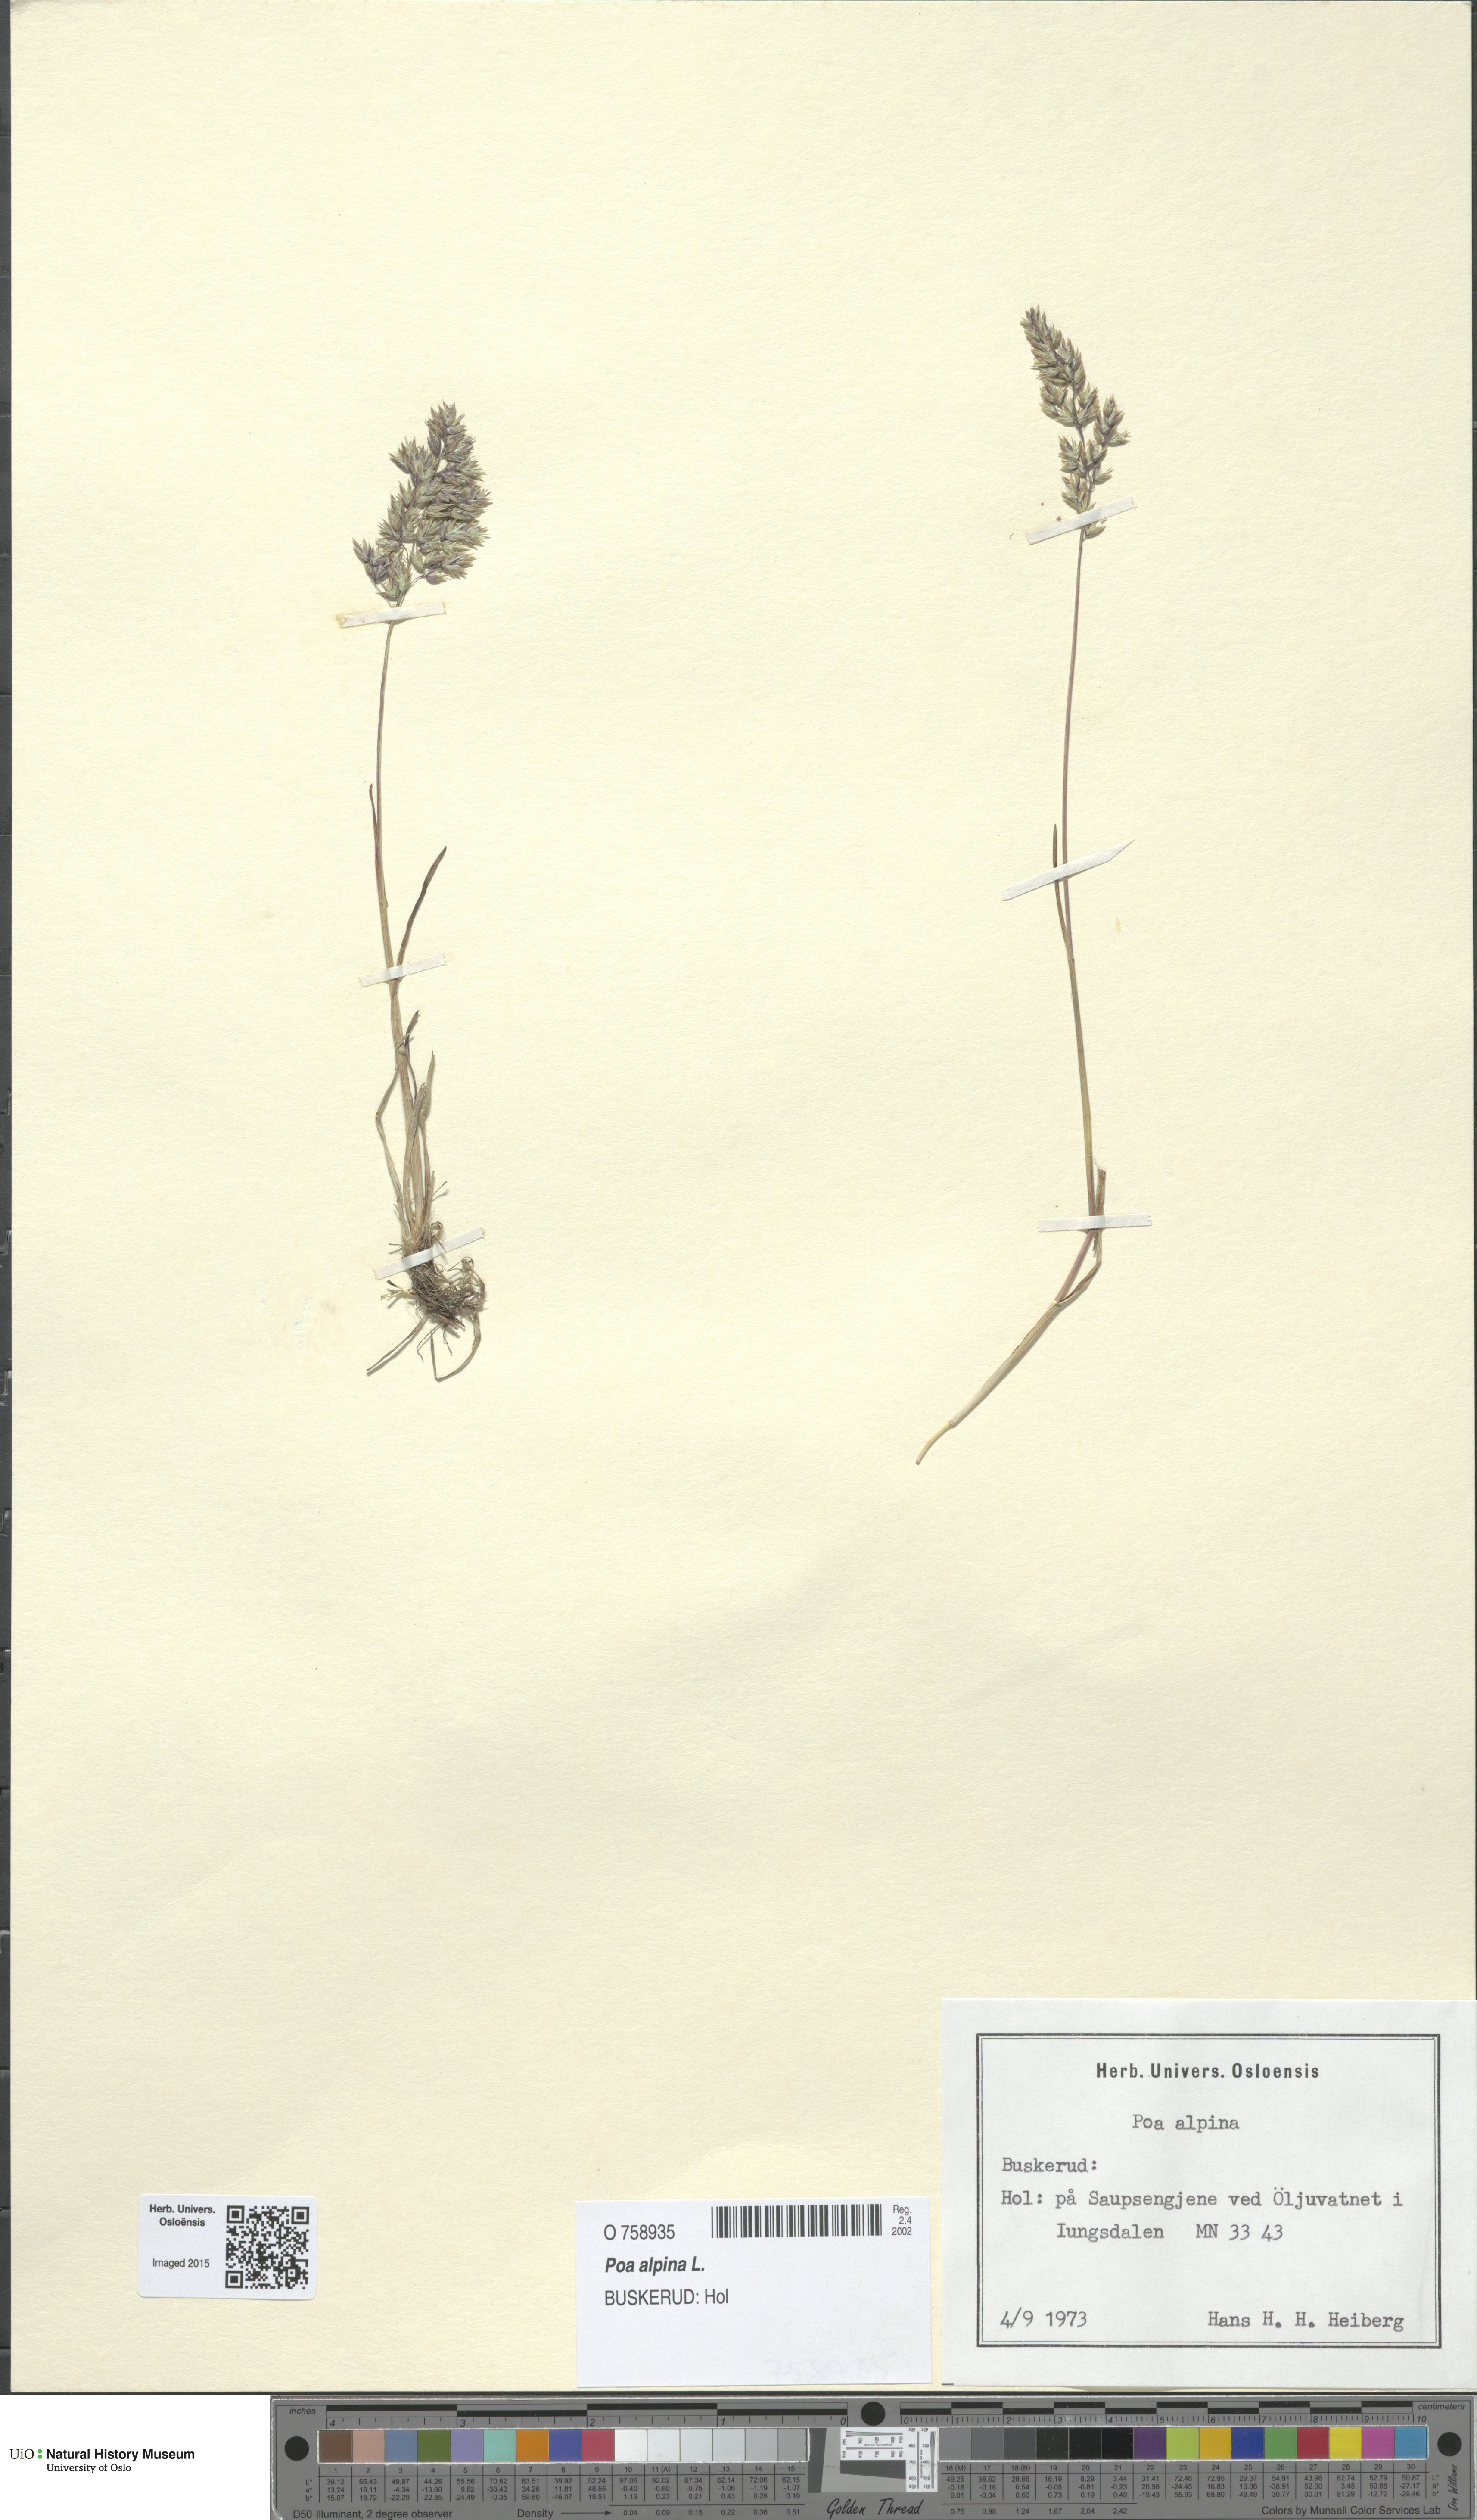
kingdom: Plantae
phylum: Tracheophyta
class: Liliopsida
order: Poales
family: Poaceae
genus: Poa
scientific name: Poa alpina
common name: Alpine bluegrass
